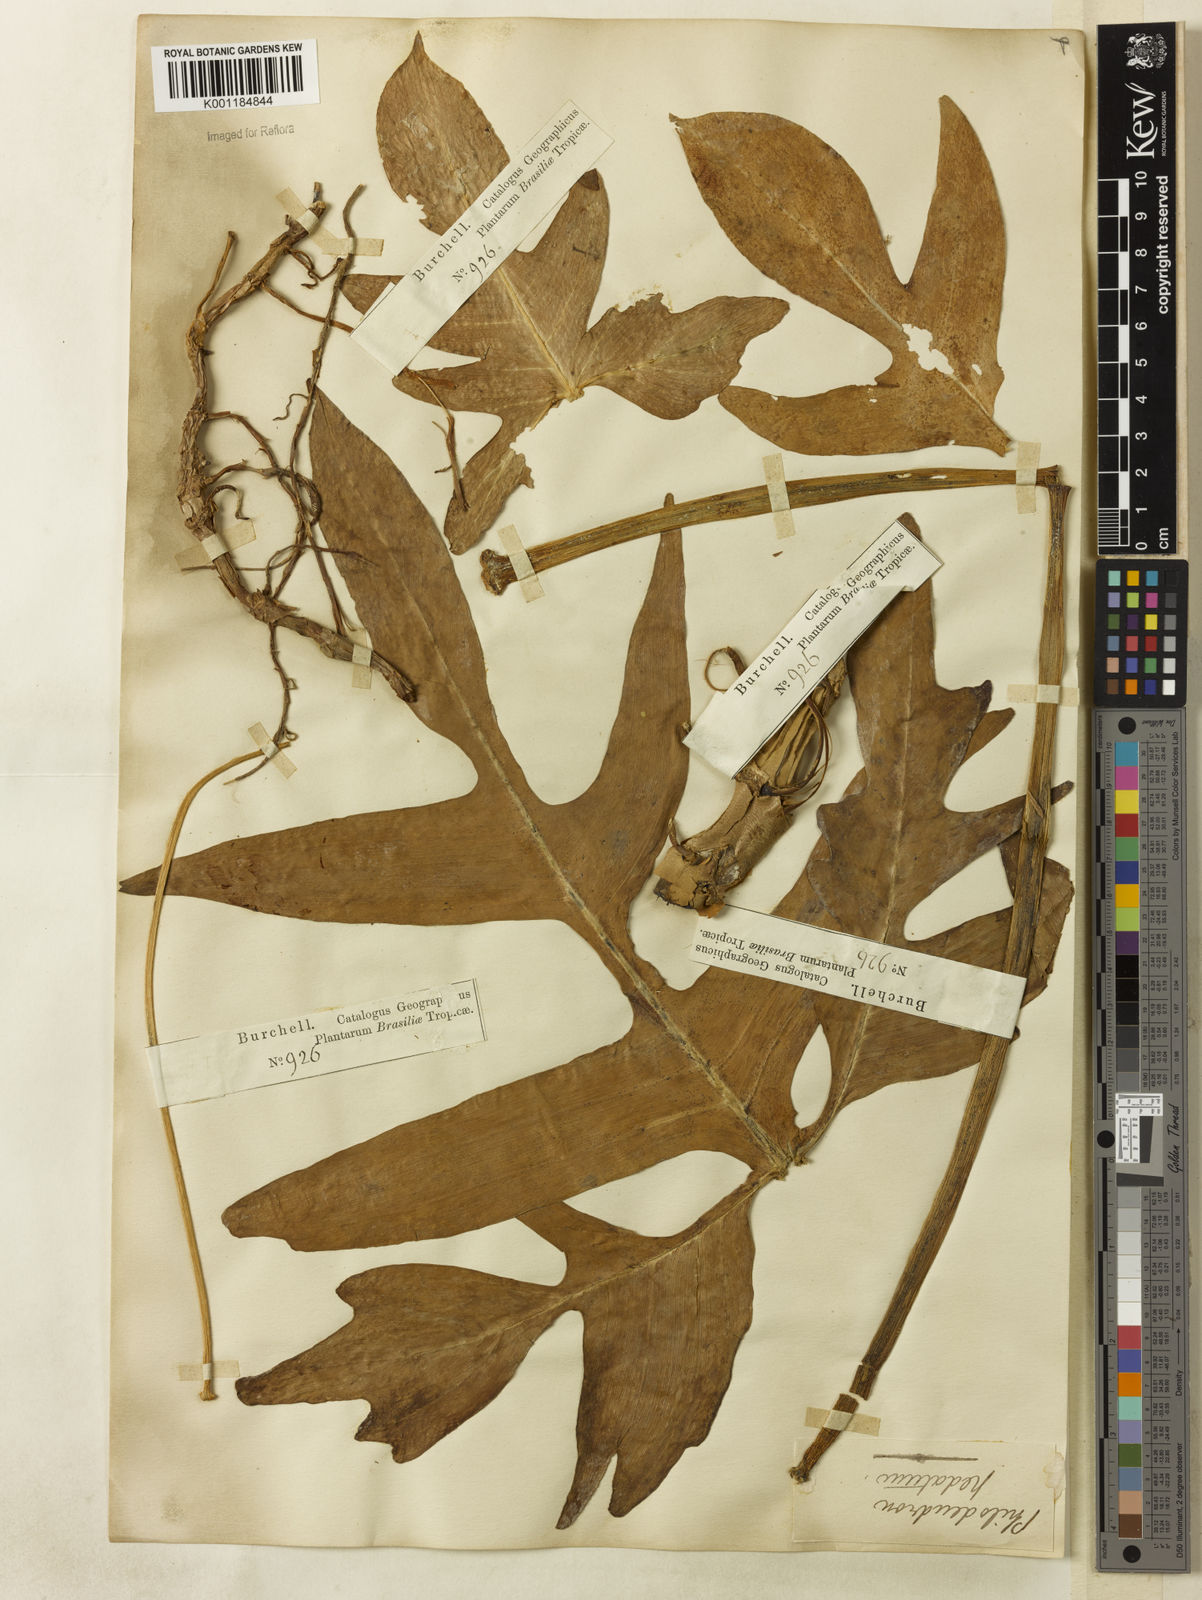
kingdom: Plantae
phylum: Tracheophyta
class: Liliopsida
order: Alismatales
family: Araceae
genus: Philodendron
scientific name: Philodendron pedatum
